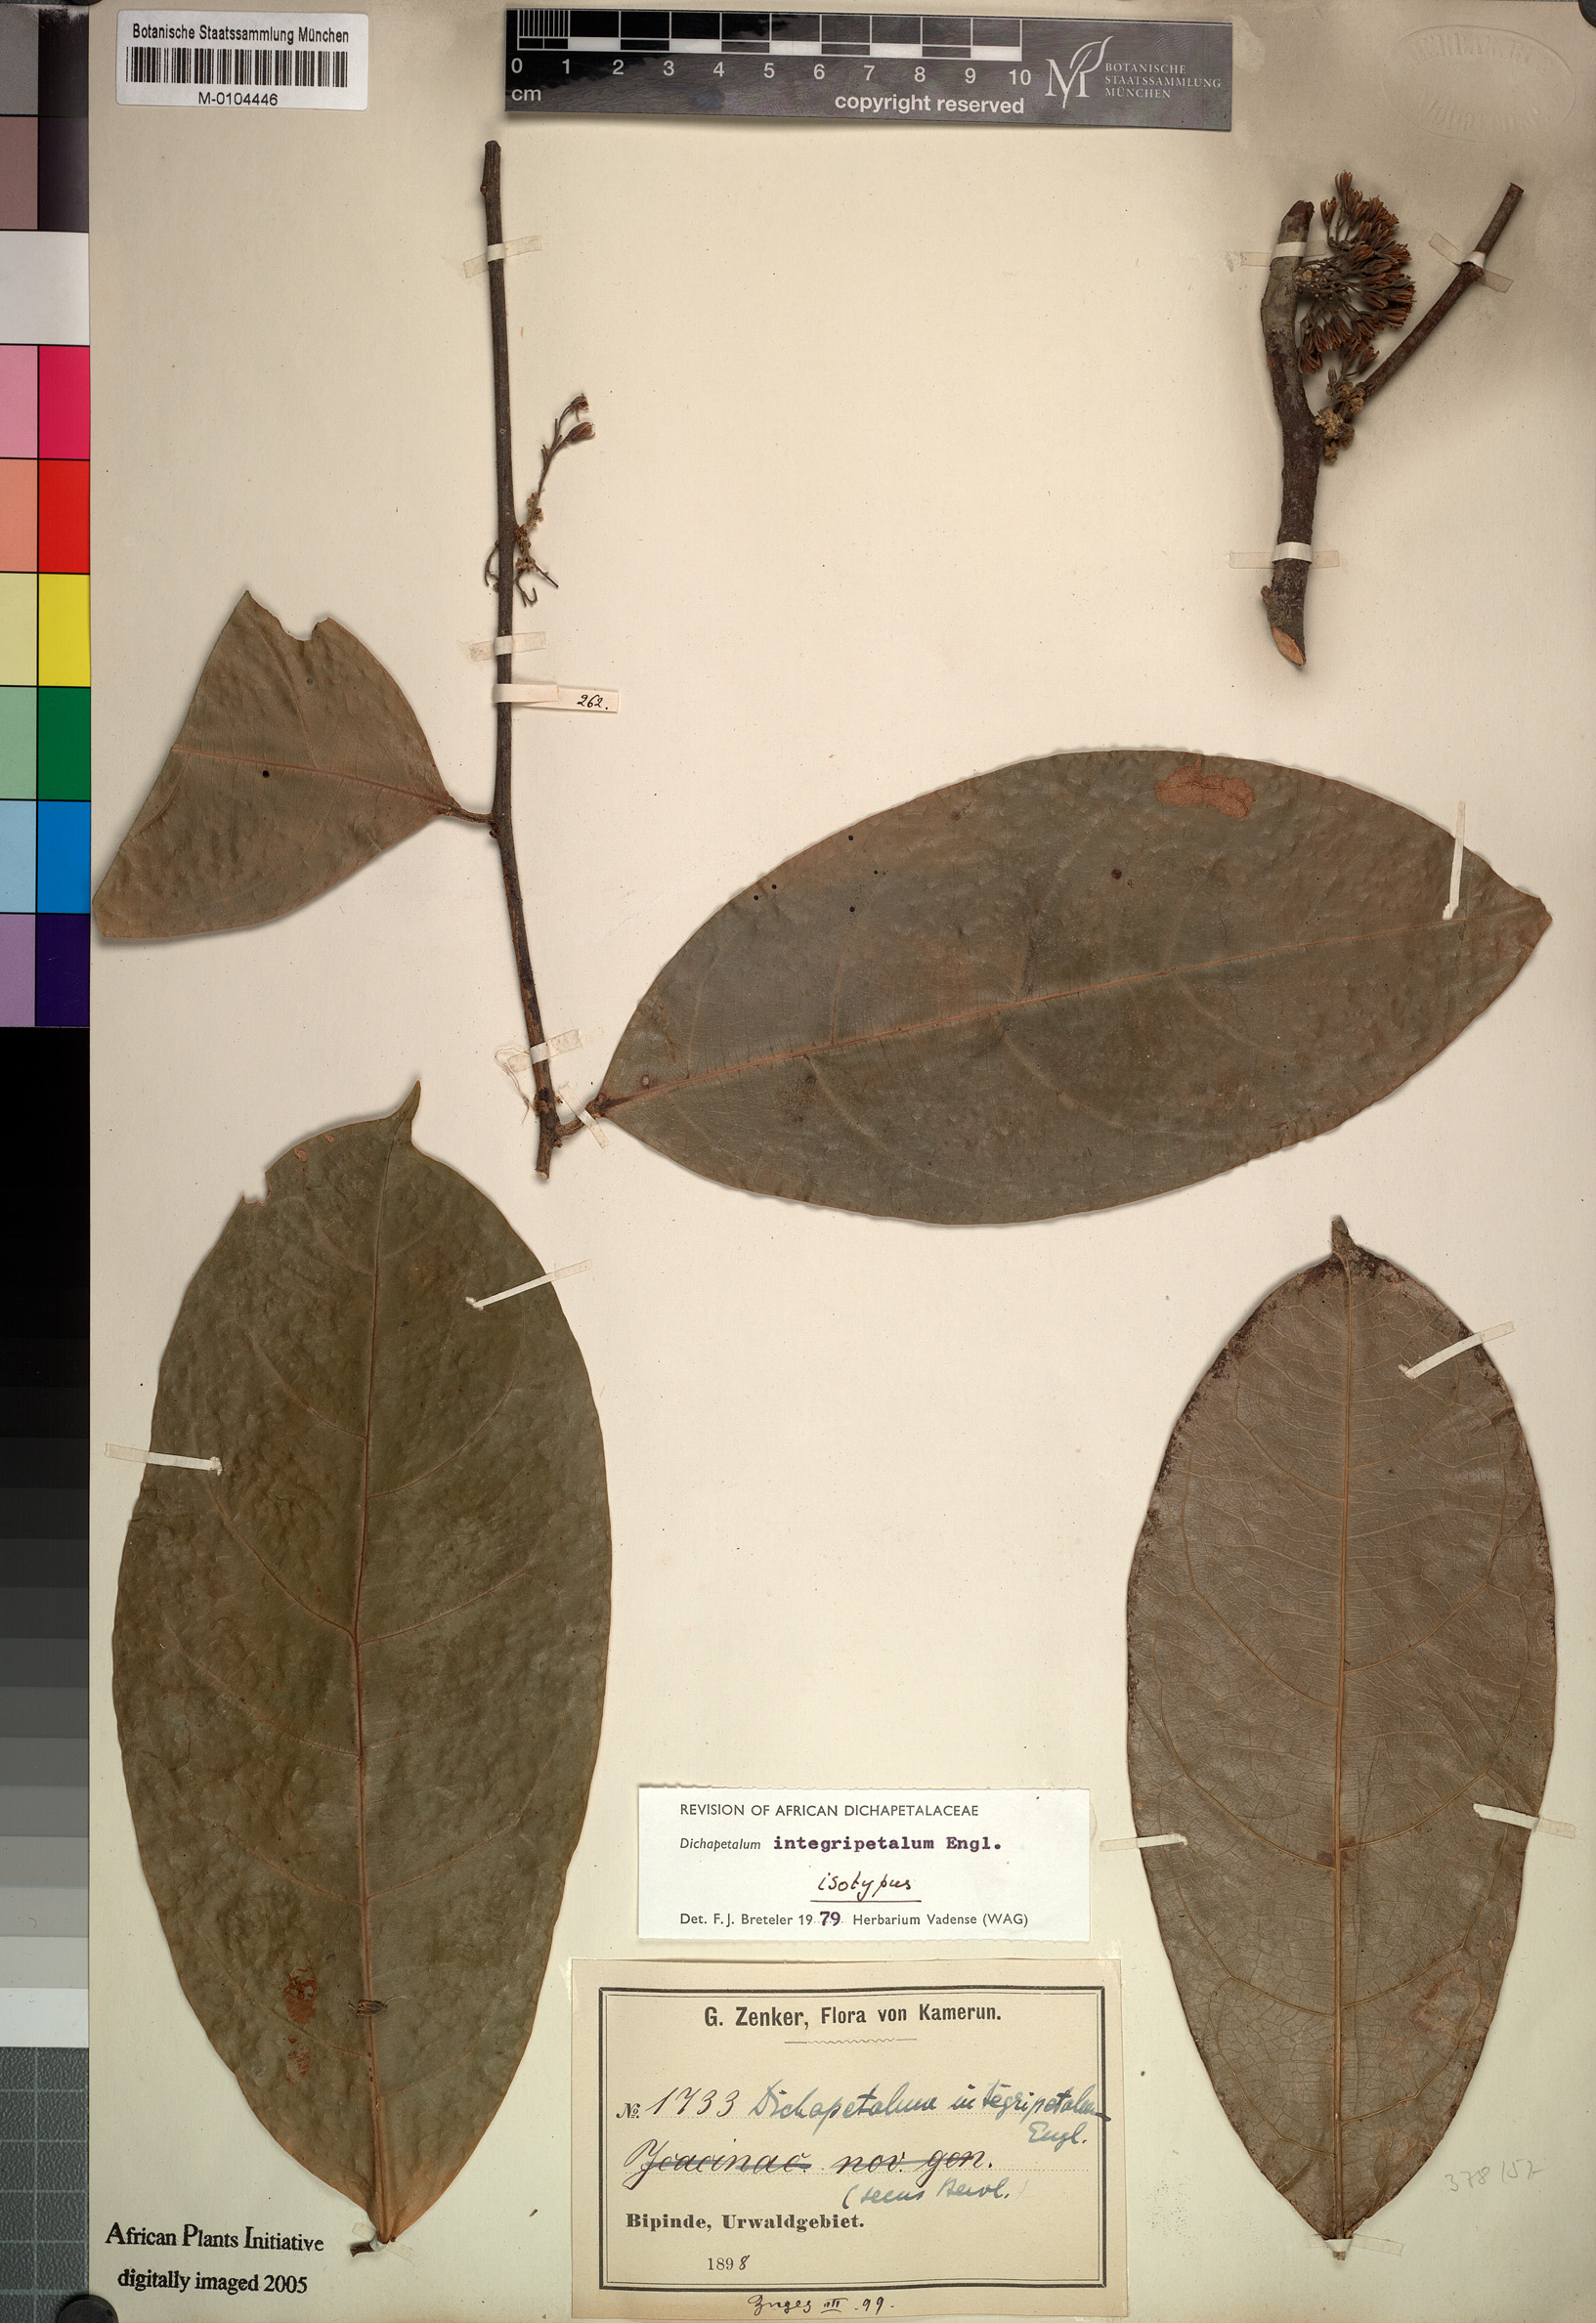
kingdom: Plantae
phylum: Tracheophyta
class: Magnoliopsida
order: Malpighiales
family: Dichapetalaceae
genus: Dichapetalum
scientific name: Dichapetalum integripetalum
